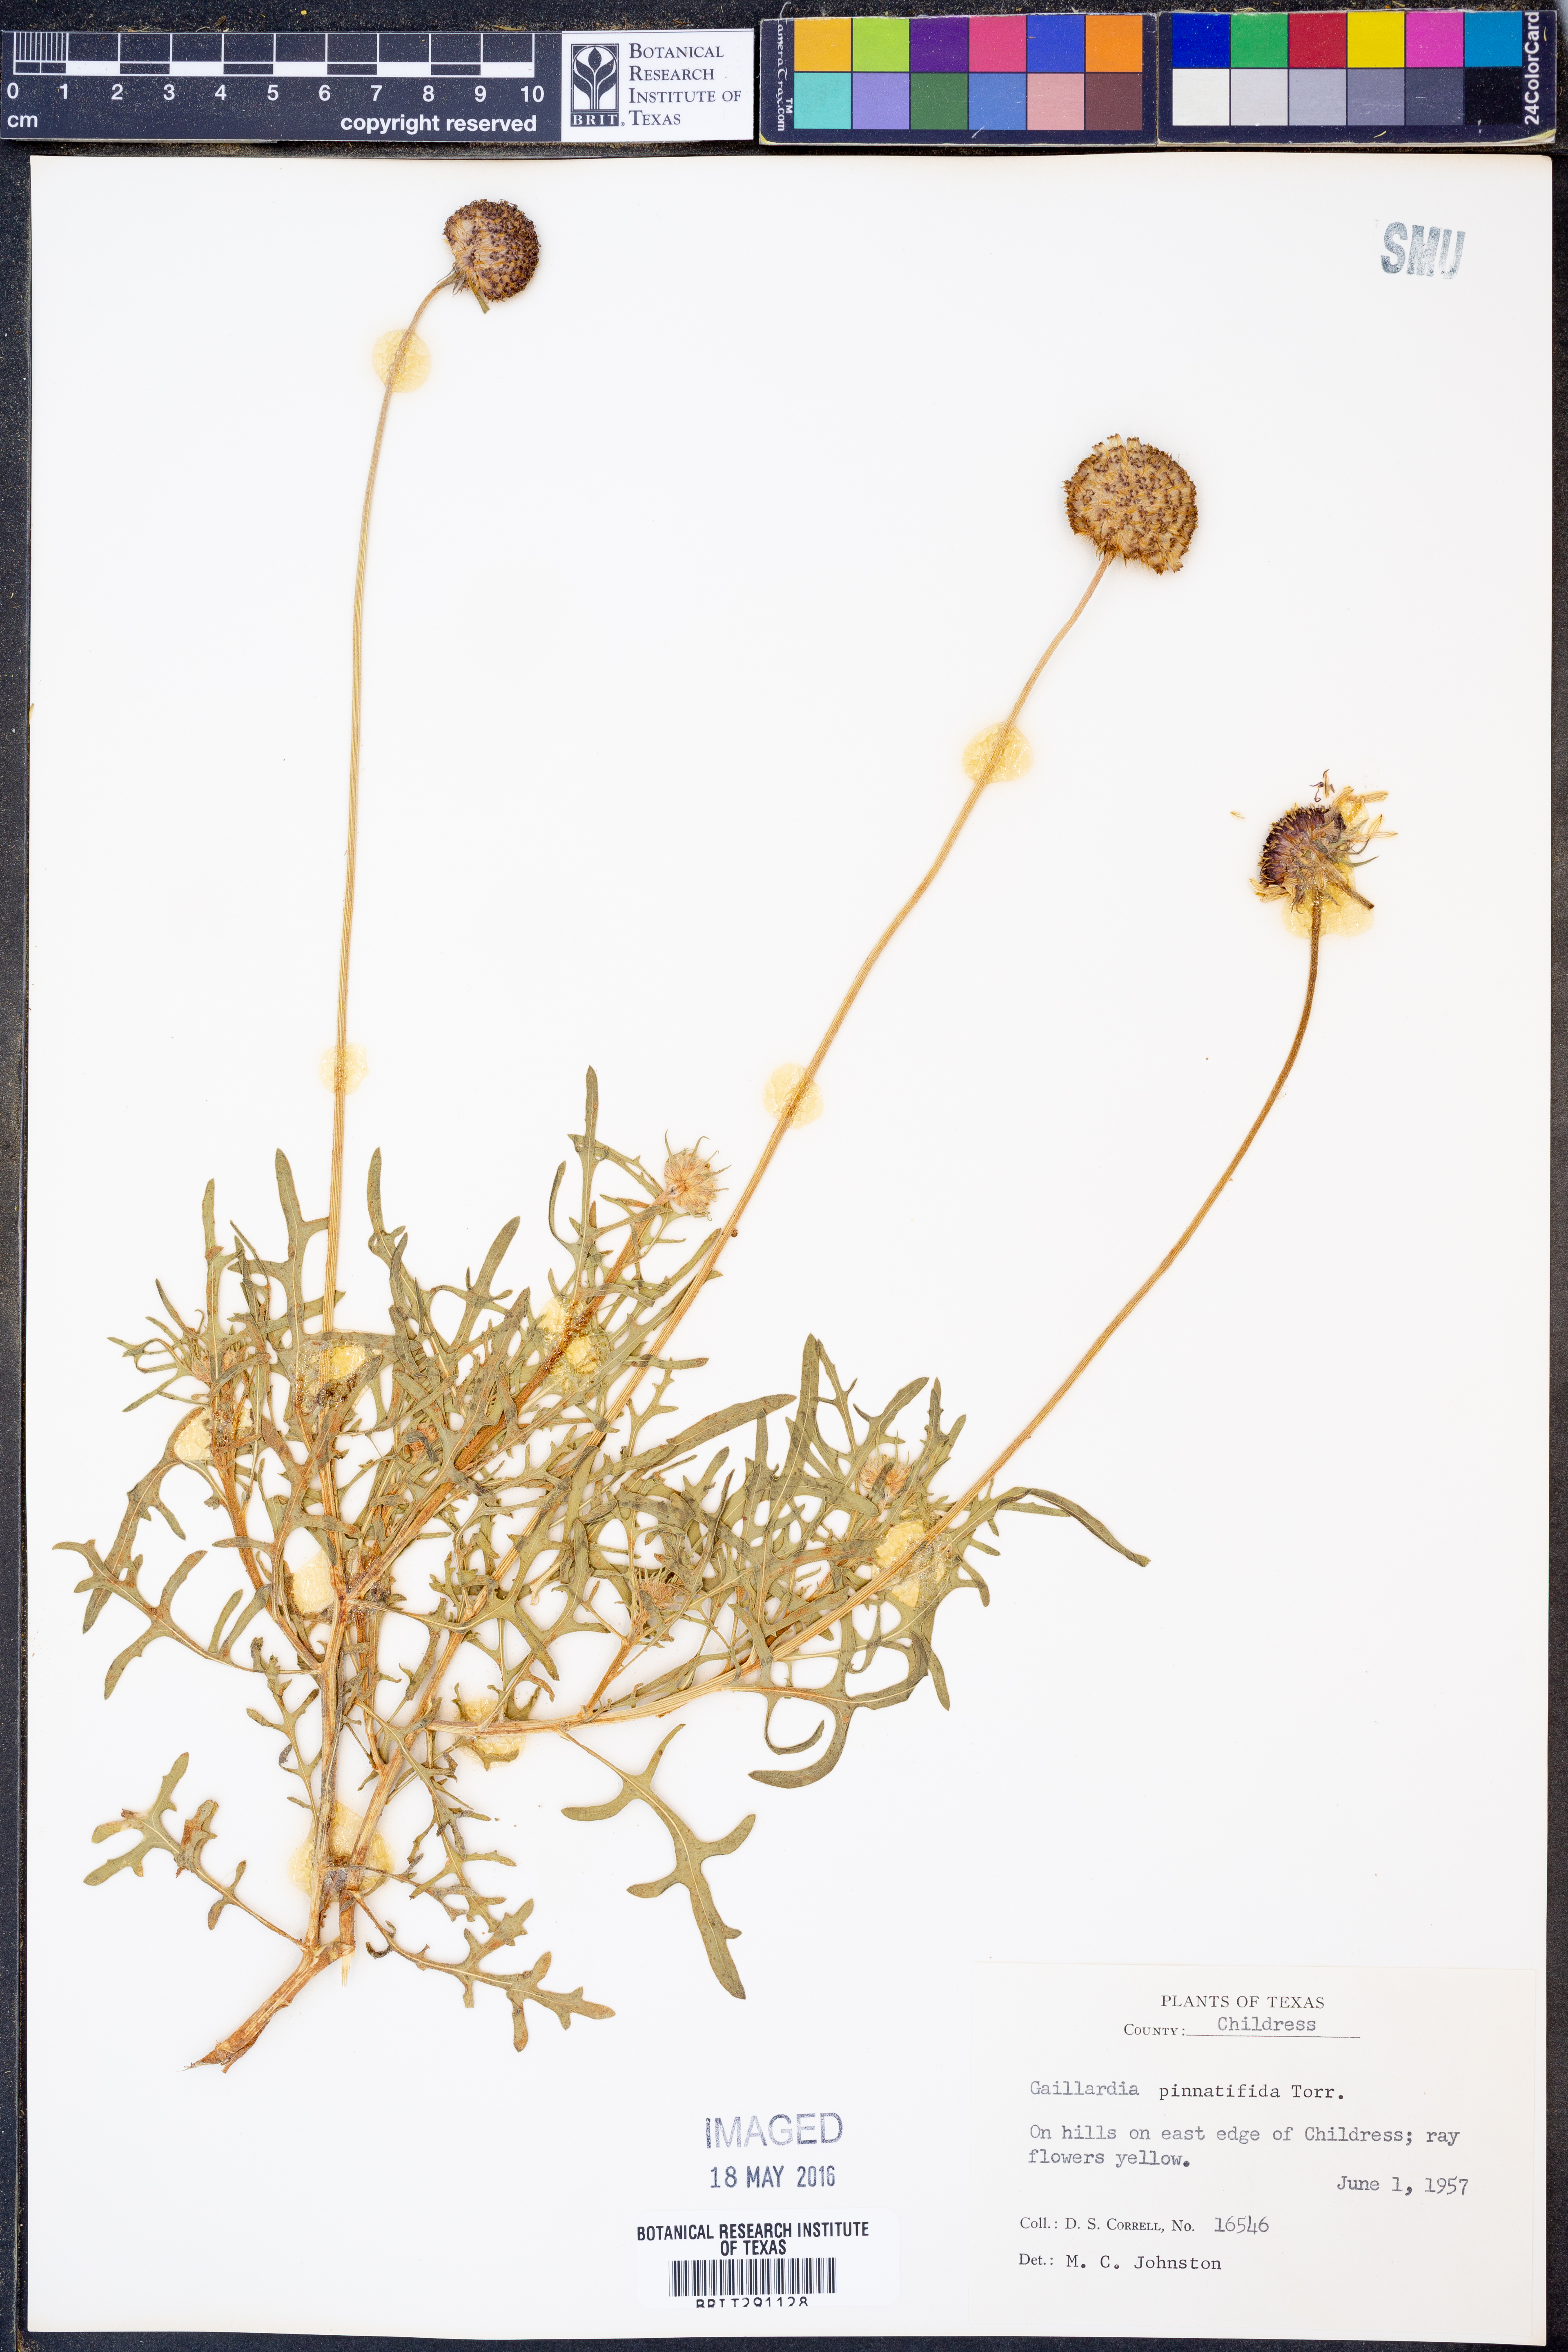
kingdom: Plantae
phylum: Tracheophyta
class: Magnoliopsida
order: Asterales
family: Asteraceae
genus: Gaillardia
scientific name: Gaillardia pinnatifida
